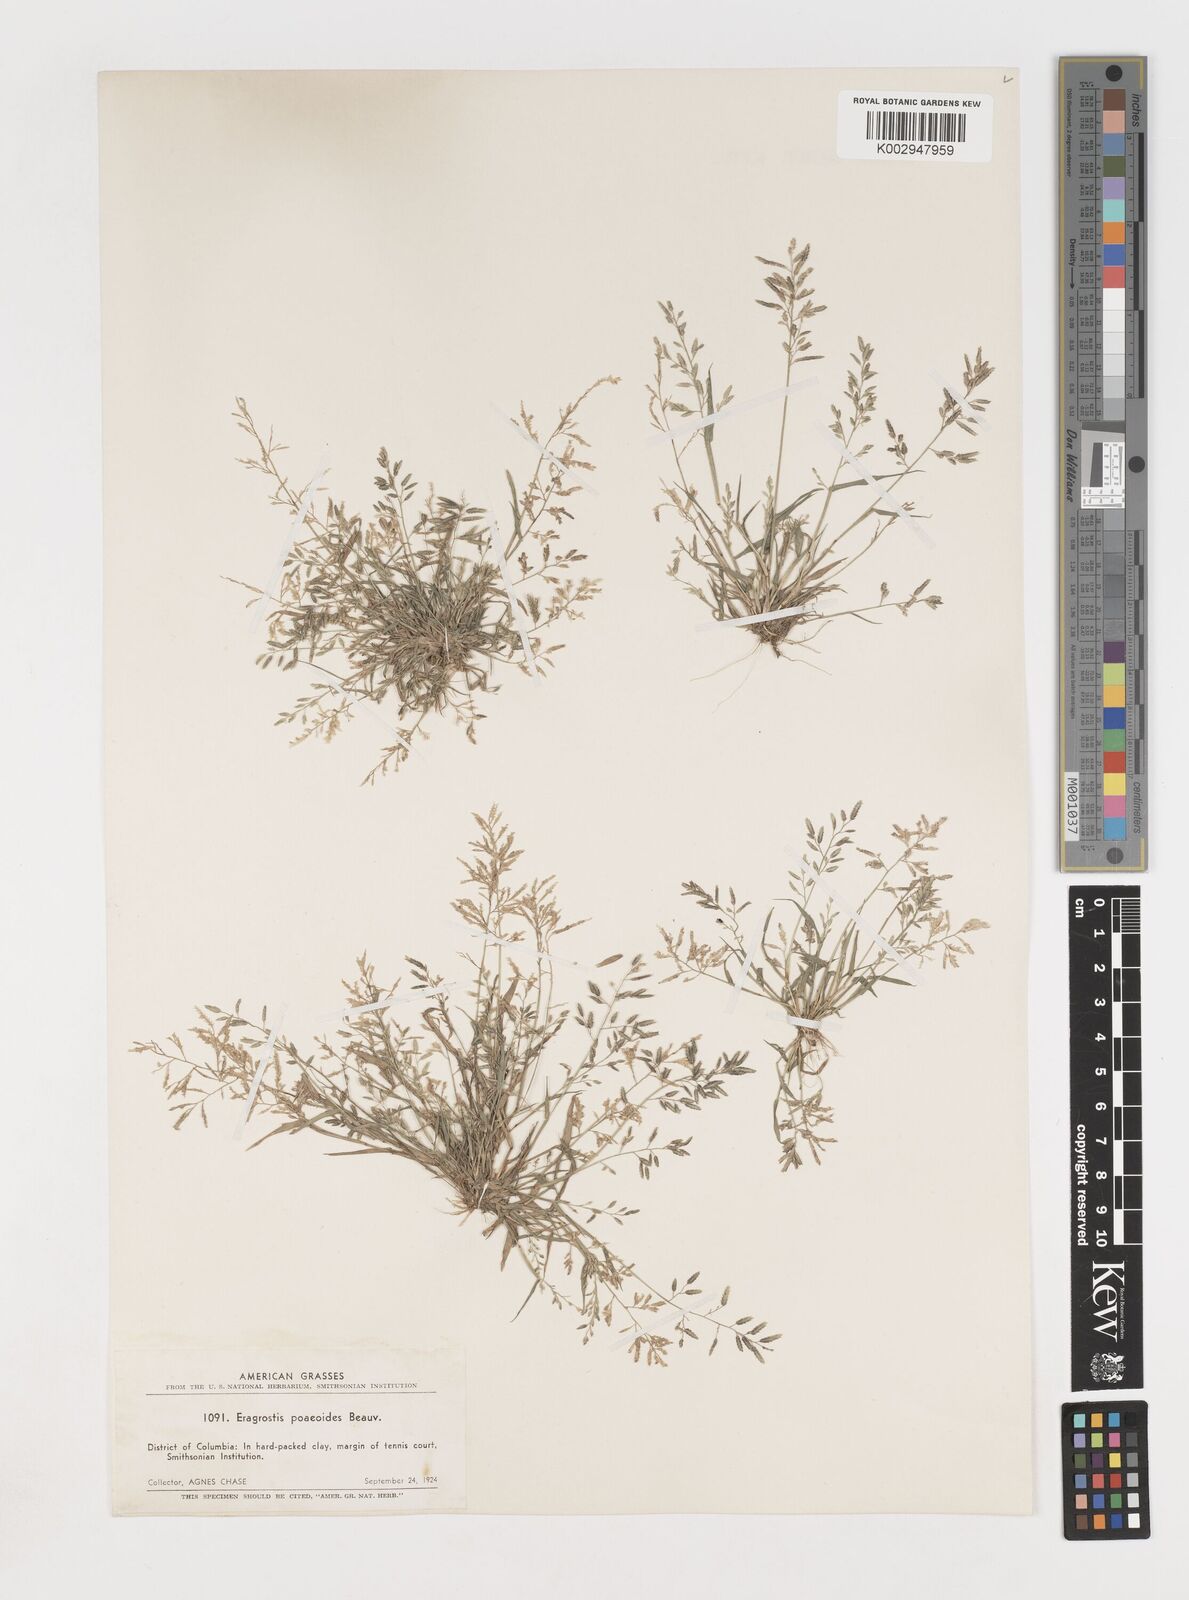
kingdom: Plantae
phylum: Tracheophyta
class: Liliopsida
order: Poales
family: Poaceae
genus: Eragrostis
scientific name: Eragrostis
